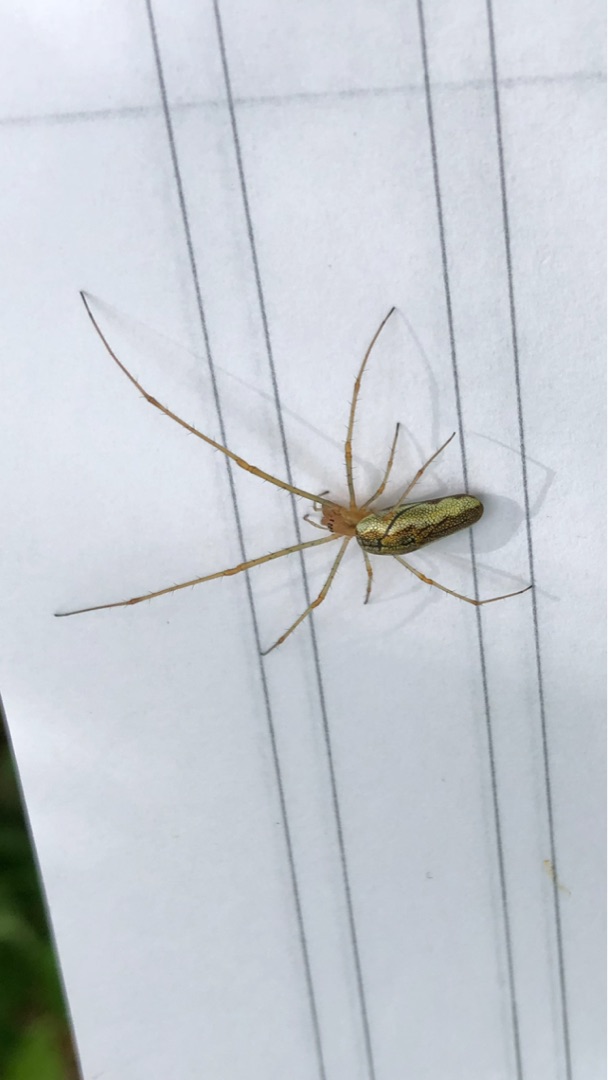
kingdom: Animalia
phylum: Arthropoda
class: Arachnida
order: Araneae
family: Tetragnathidae
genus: Tetragnatha
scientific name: Tetragnatha extensa
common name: Engstavedderkop
